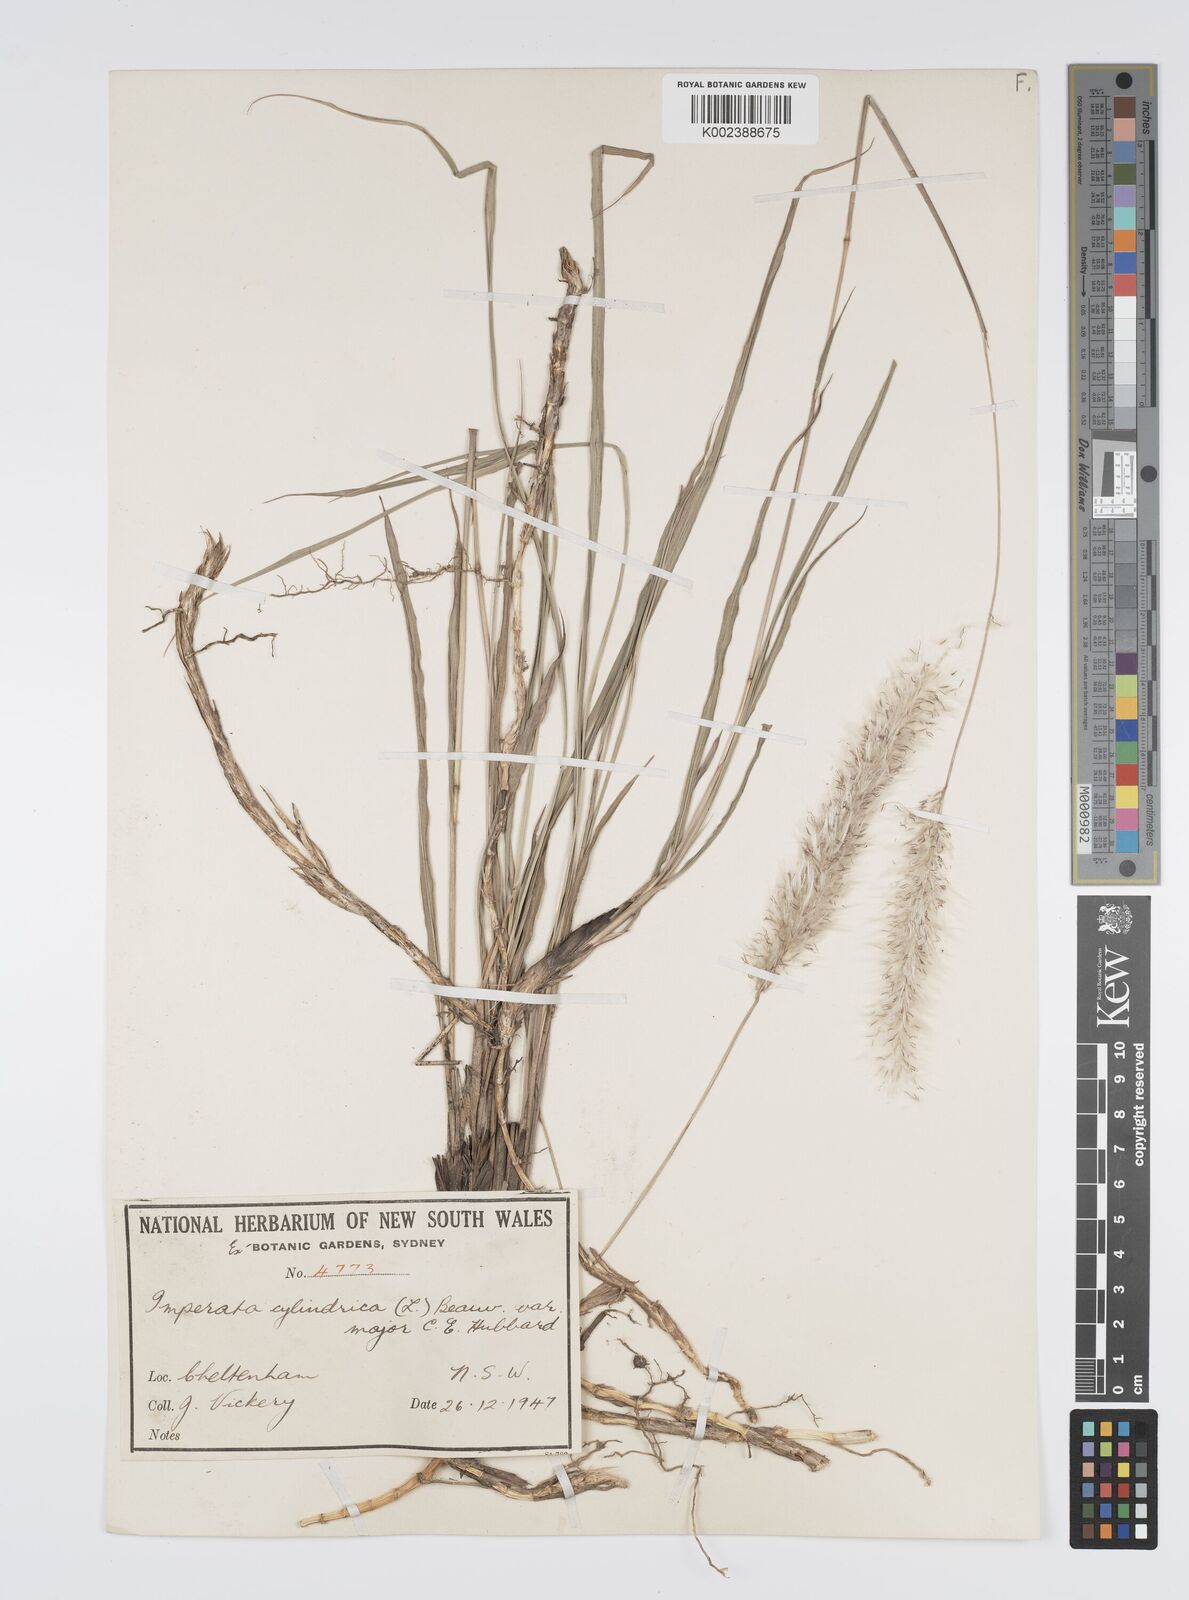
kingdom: Plantae
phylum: Tracheophyta
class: Liliopsida
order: Poales
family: Poaceae
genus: Imperata
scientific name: Imperata cylindrica
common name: Cogongrass
